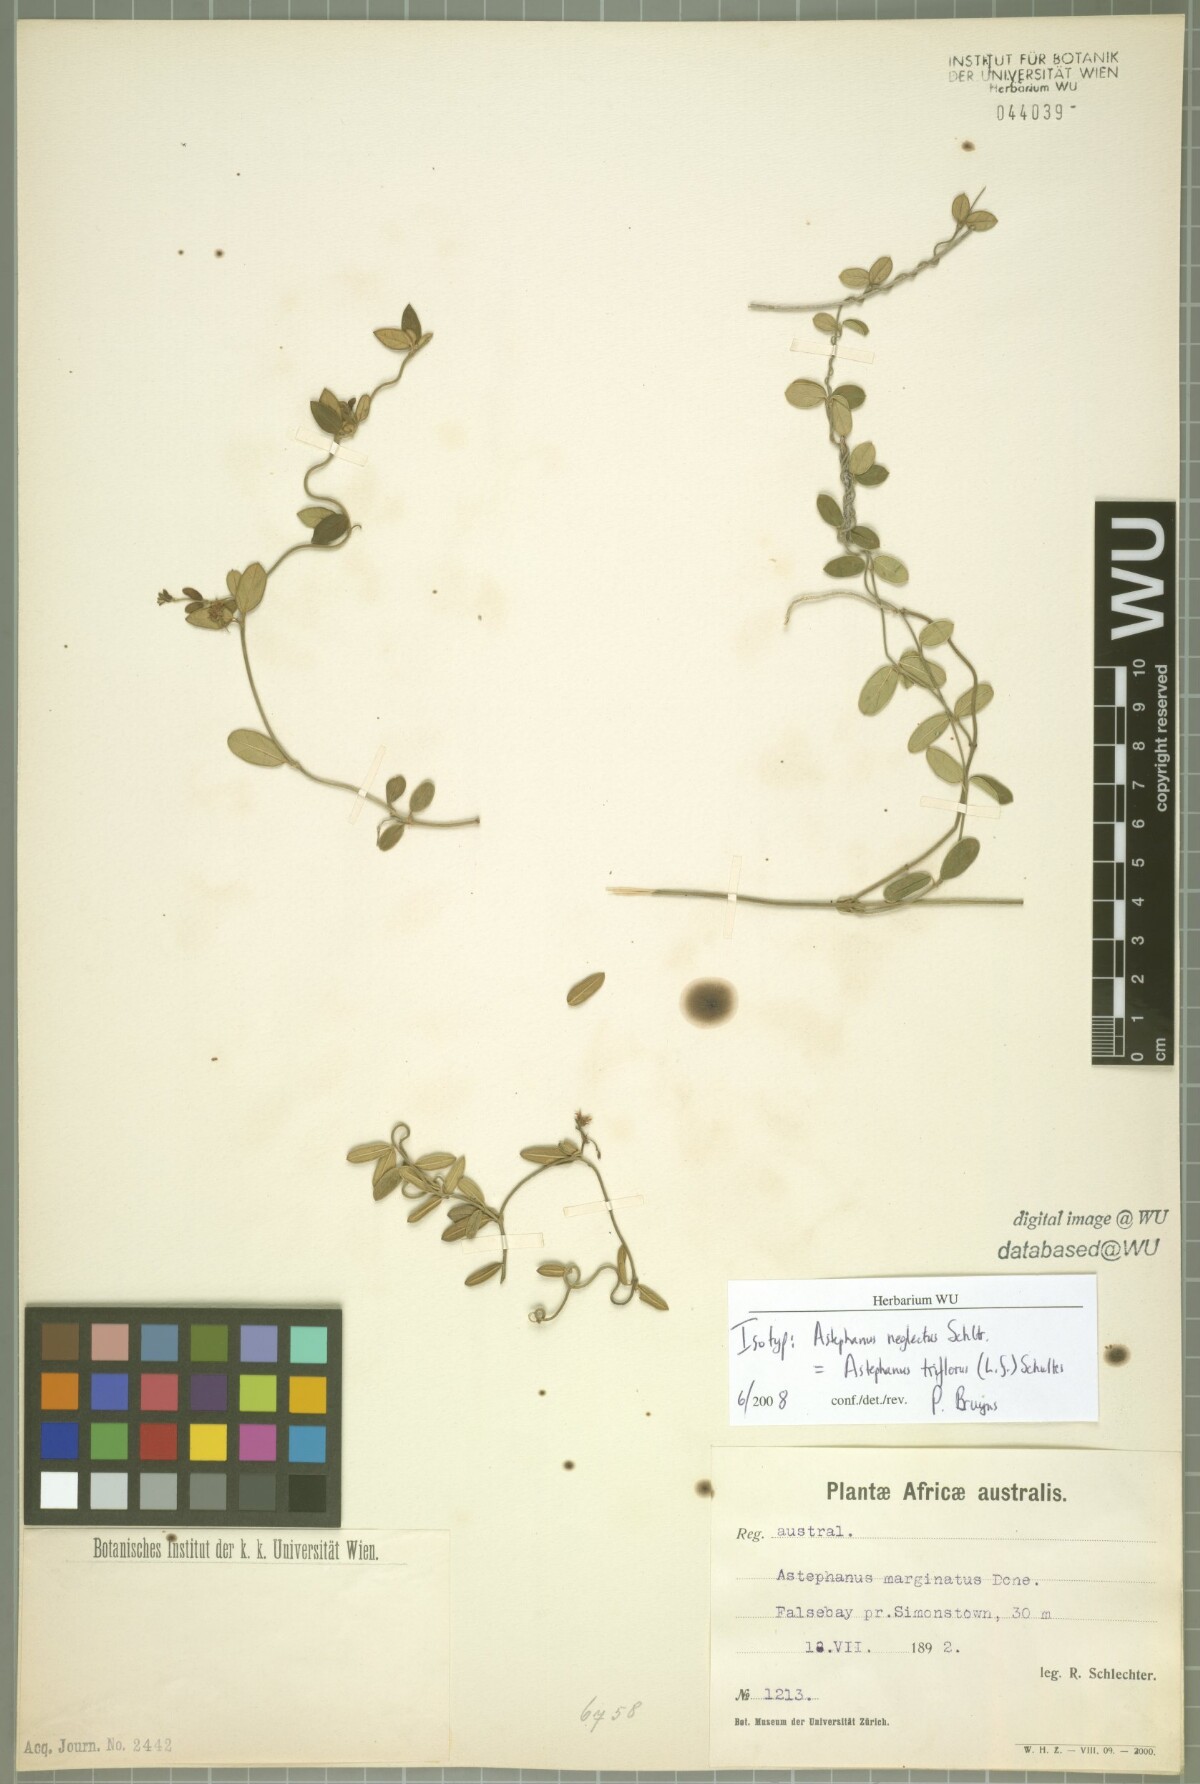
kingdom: Plantae
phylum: Tracheophyta
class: Magnoliopsida
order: Gentianales
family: Apocynaceae
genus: Astephanus
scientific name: Astephanus triflorus
